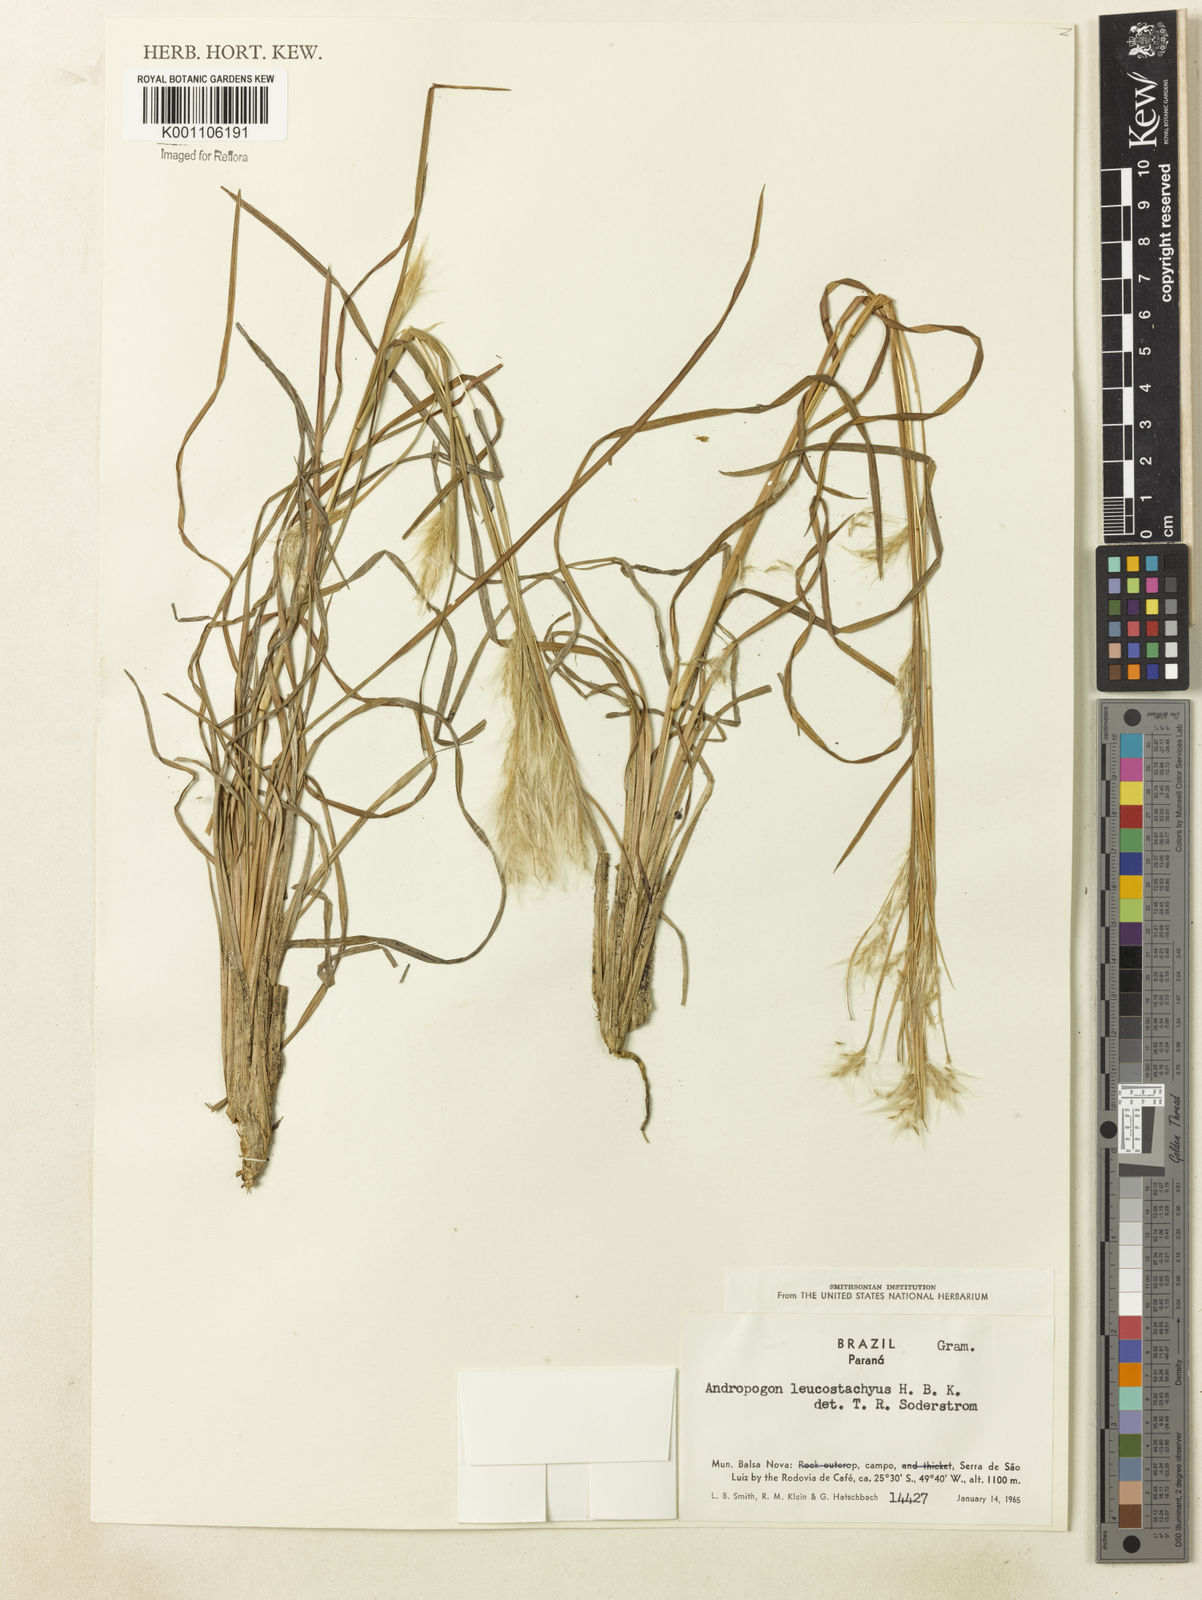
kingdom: Plantae
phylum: Tracheophyta
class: Liliopsida
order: Poales
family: Poaceae
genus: Andropogon
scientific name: Andropogon leucostachyus
